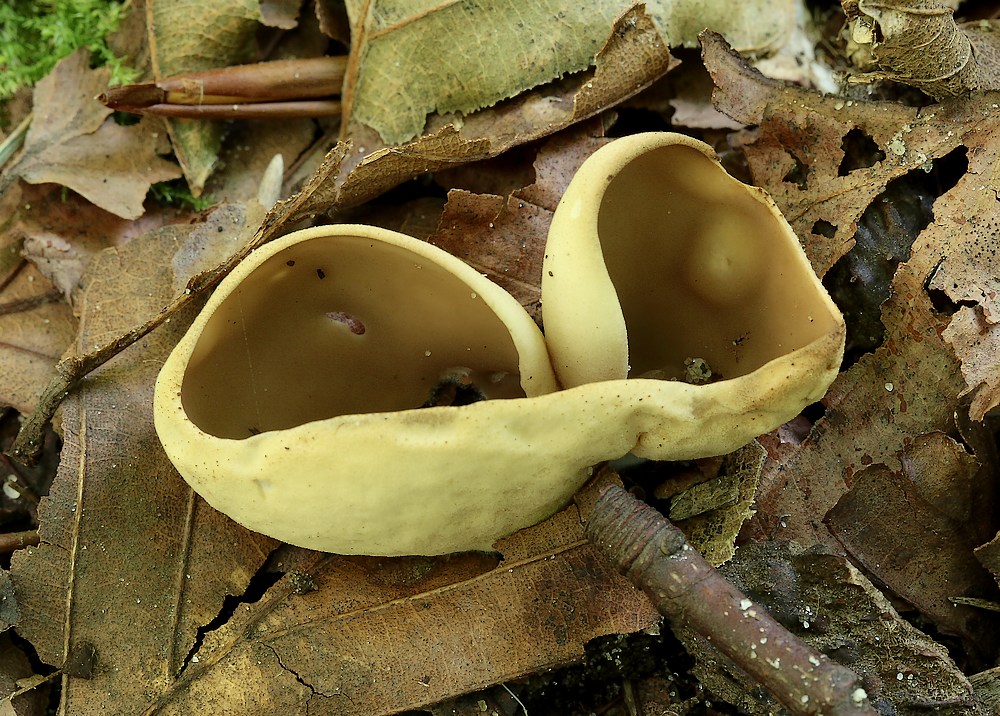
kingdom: Fungi
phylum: Ascomycota
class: Pezizomycetes
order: Pezizales
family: Otideaceae
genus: Otidea
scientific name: Otidea alutacea
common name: læder-ørebæger
